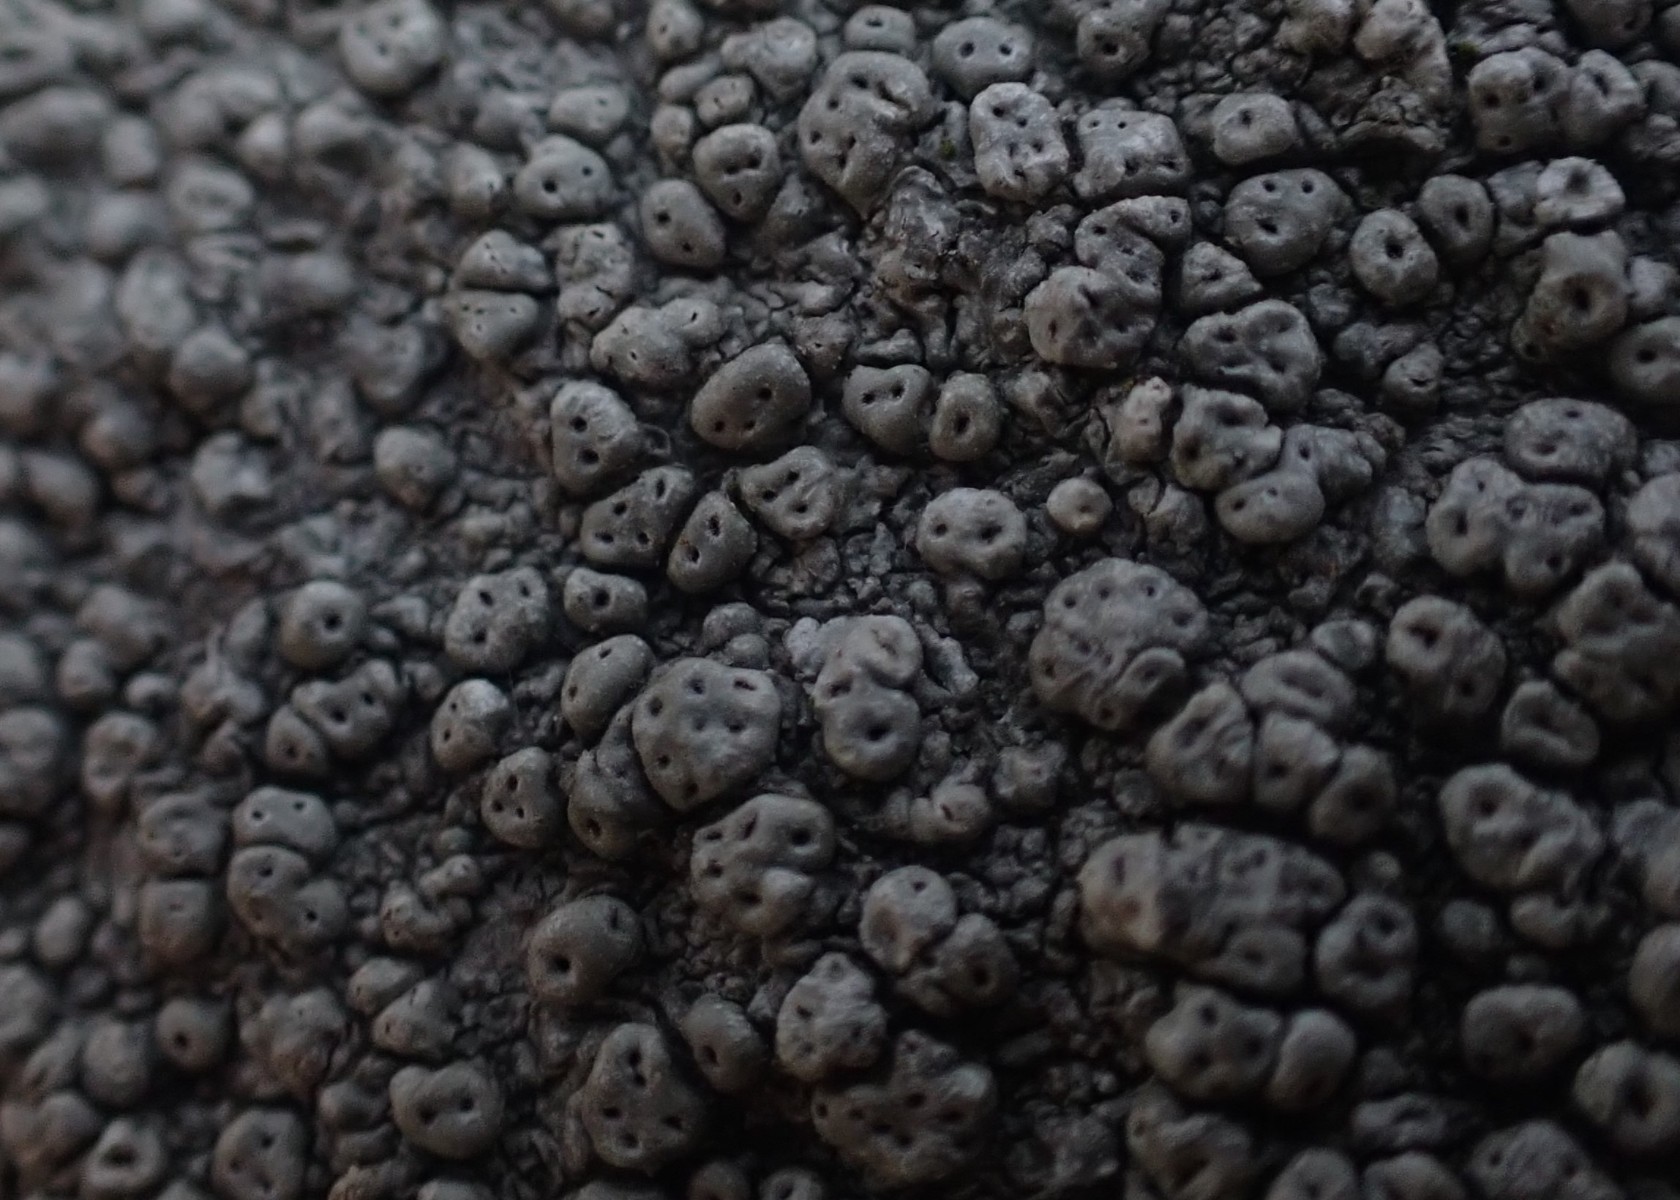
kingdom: Fungi
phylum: Ascomycota
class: Lecanoromycetes
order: Pertusariales
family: Pertusariaceae
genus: Pertusaria
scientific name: Pertusaria pertusa
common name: almindelig prikvortelav
